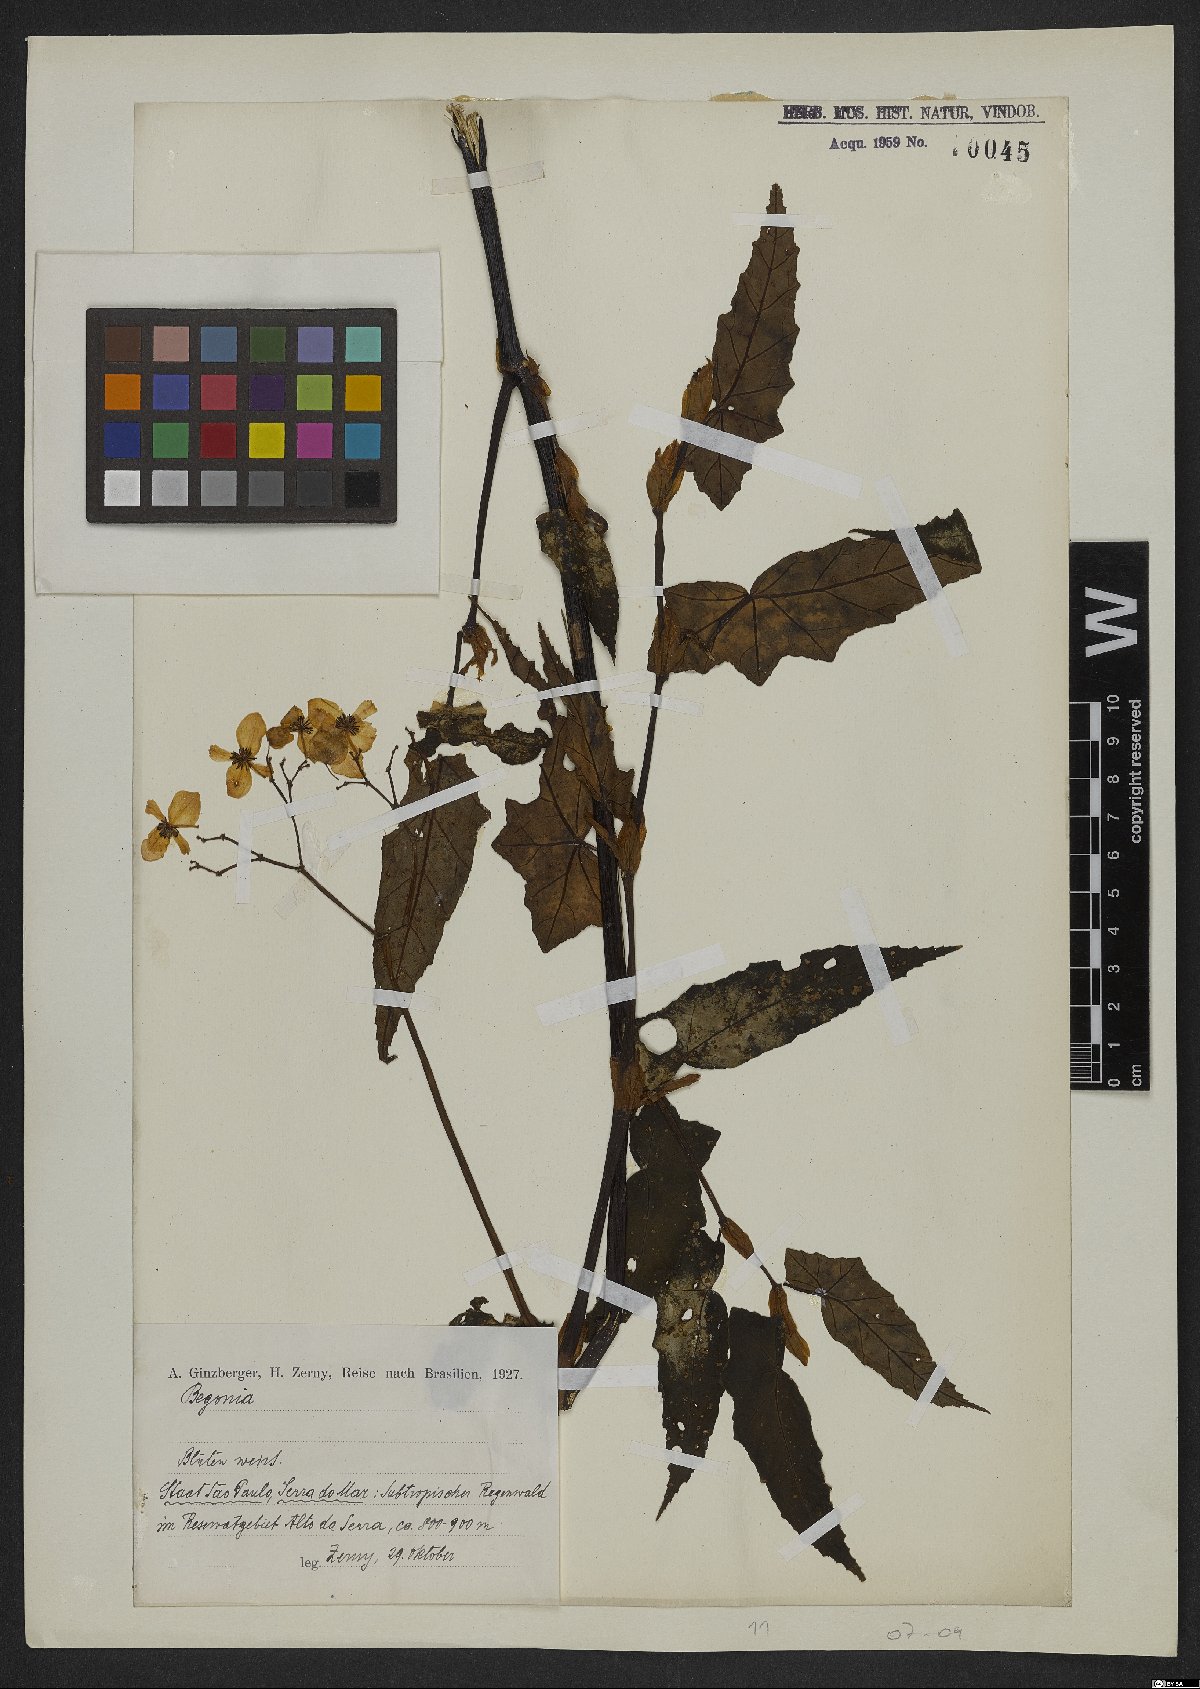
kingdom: Plantae
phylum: Tracheophyta
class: Magnoliopsida
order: Cucurbitales
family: Begoniaceae
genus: Begonia
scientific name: Begonia
